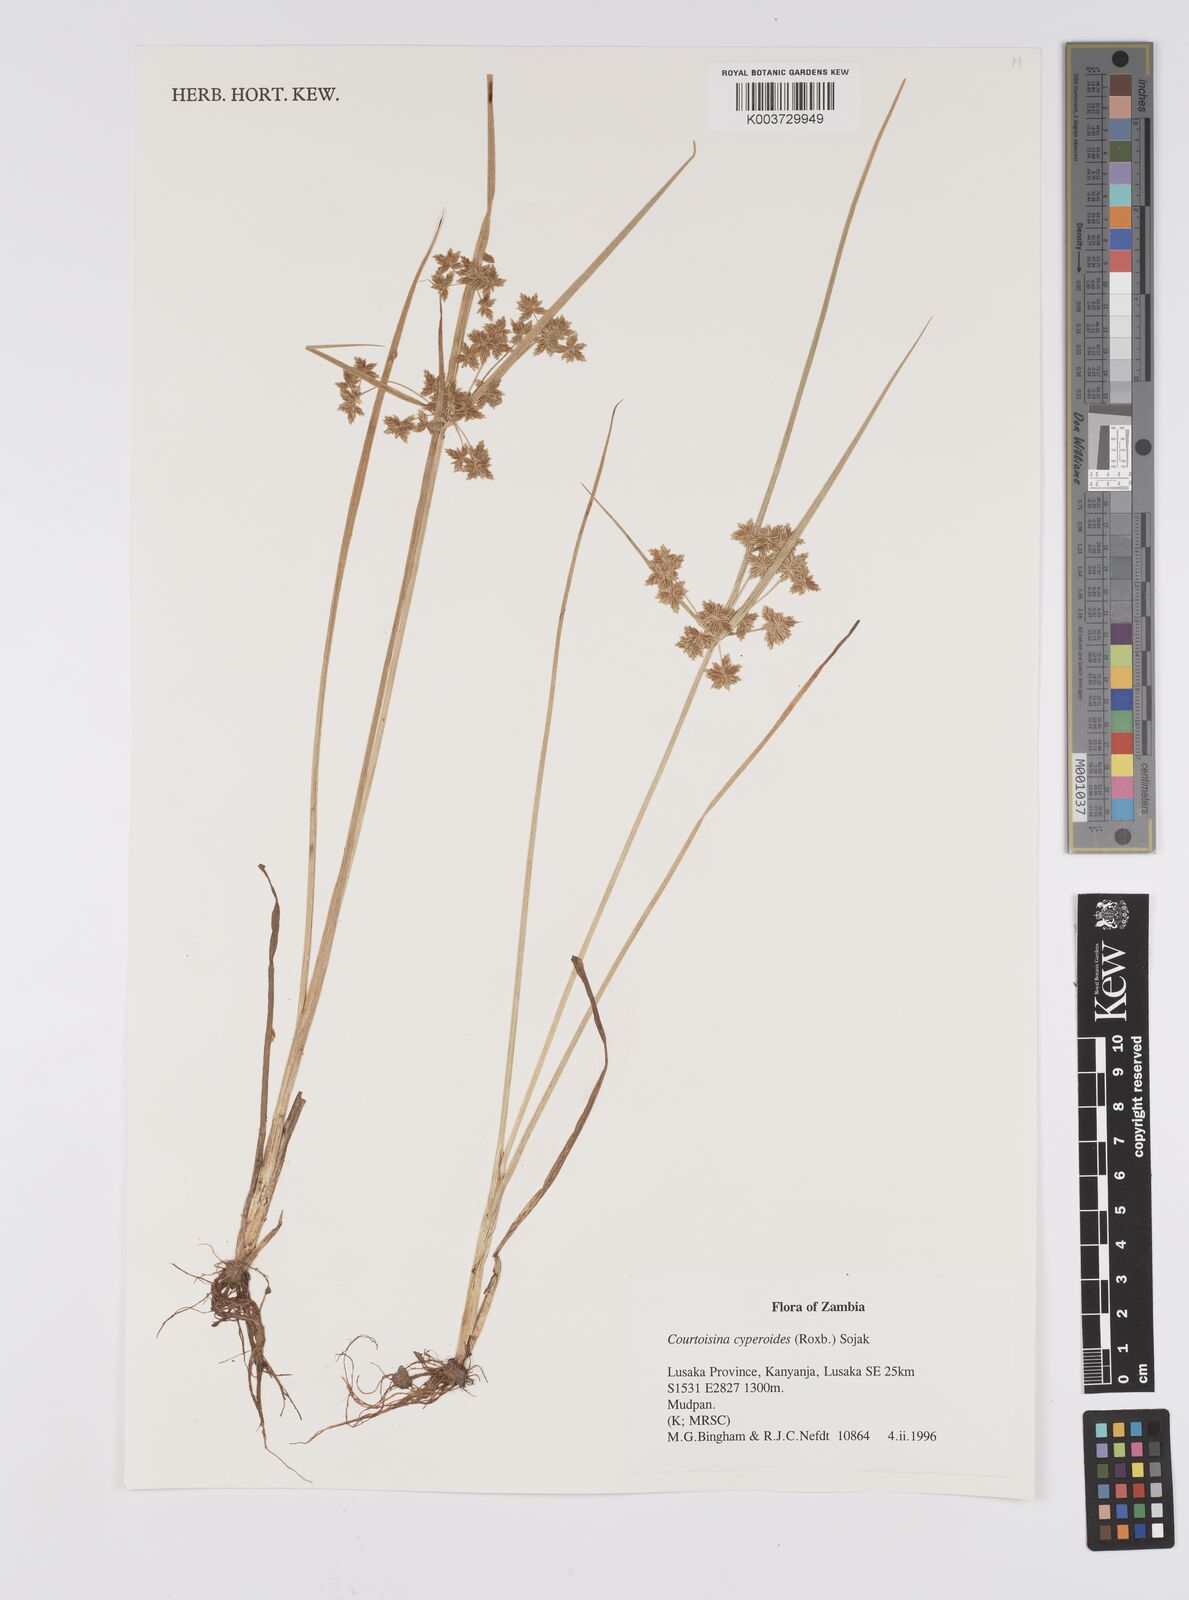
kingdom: Plantae
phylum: Tracheophyta
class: Liliopsida
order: Poales
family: Cyperaceae
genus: Cyperus
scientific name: Cyperus cyperoides
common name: Pacific island flat sedge
